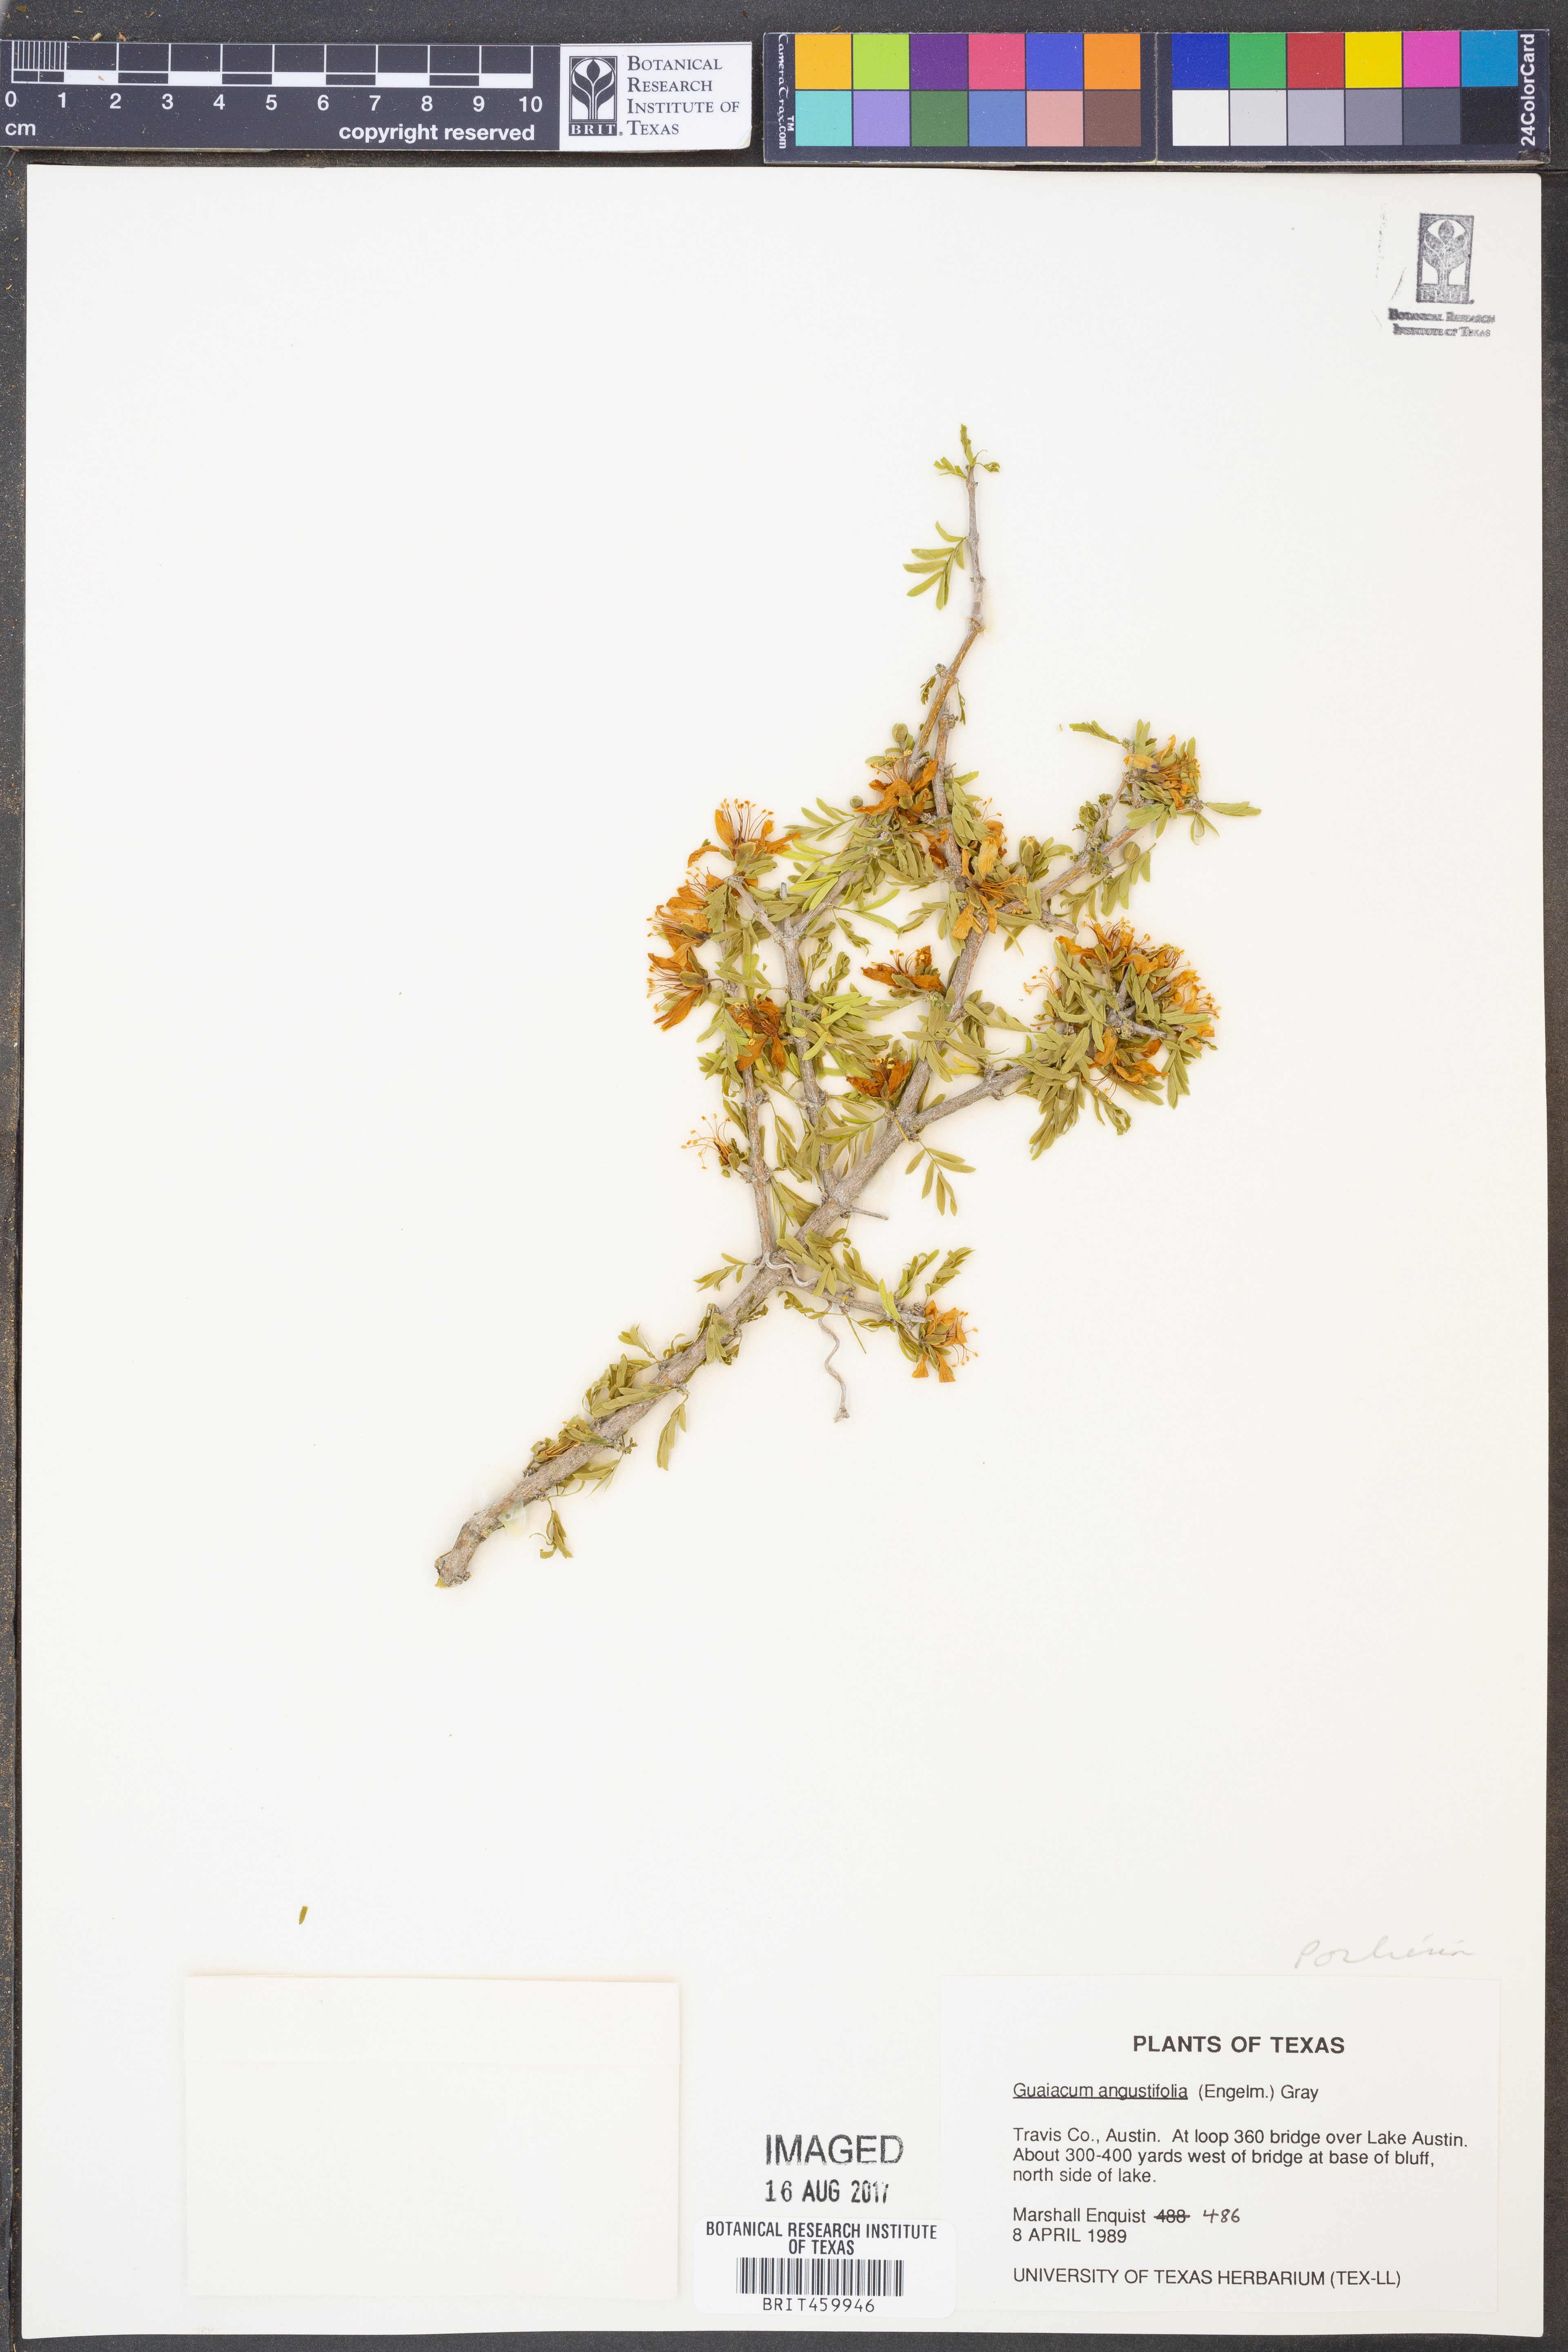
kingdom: Plantae
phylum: Tracheophyta
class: Magnoliopsida
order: Zygophyllales
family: Zygophyllaceae
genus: Porlieria
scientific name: Porlieria angustifolia
